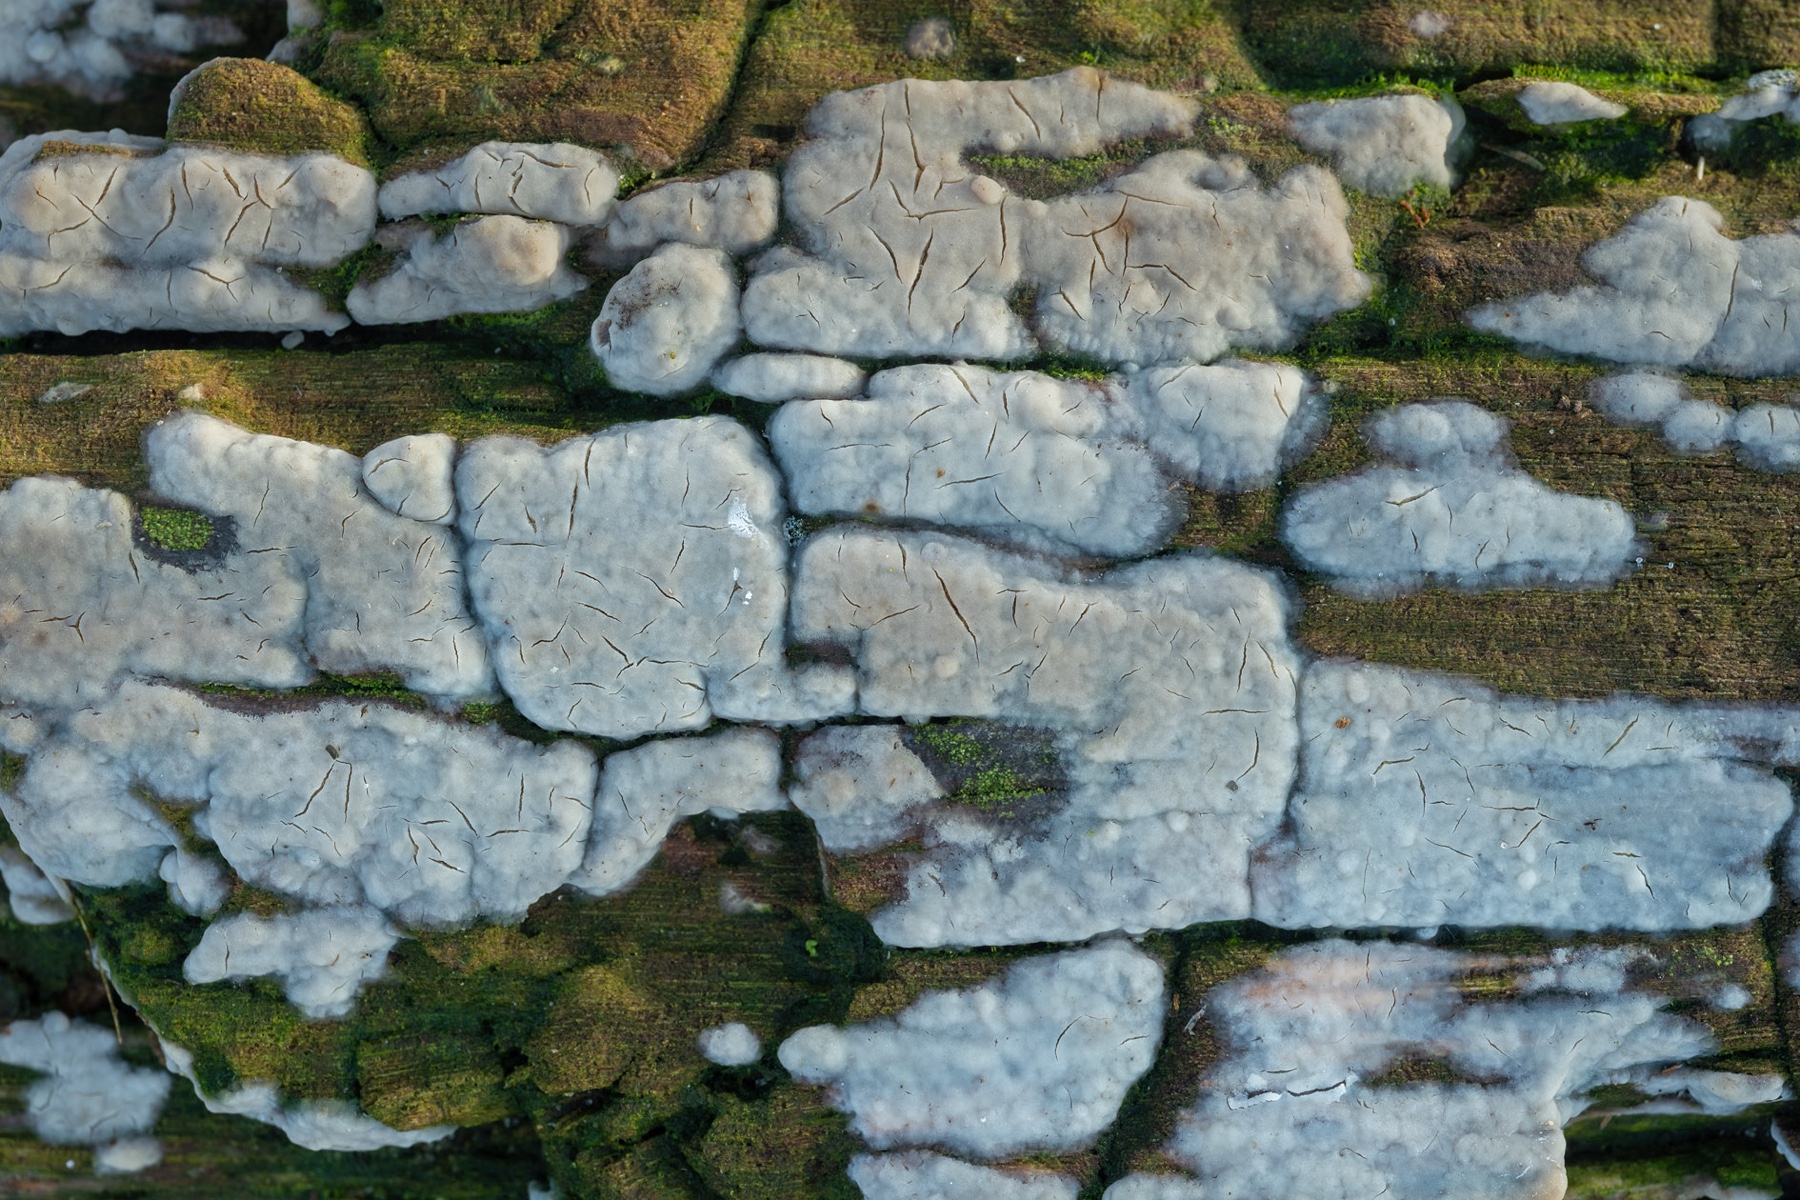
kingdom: Fungi
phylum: Basidiomycota
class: Agaricomycetes
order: Agaricales
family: Radulomycetaceae
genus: Radulomyces
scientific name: Radulomyces confluens
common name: glat naftalinskind
